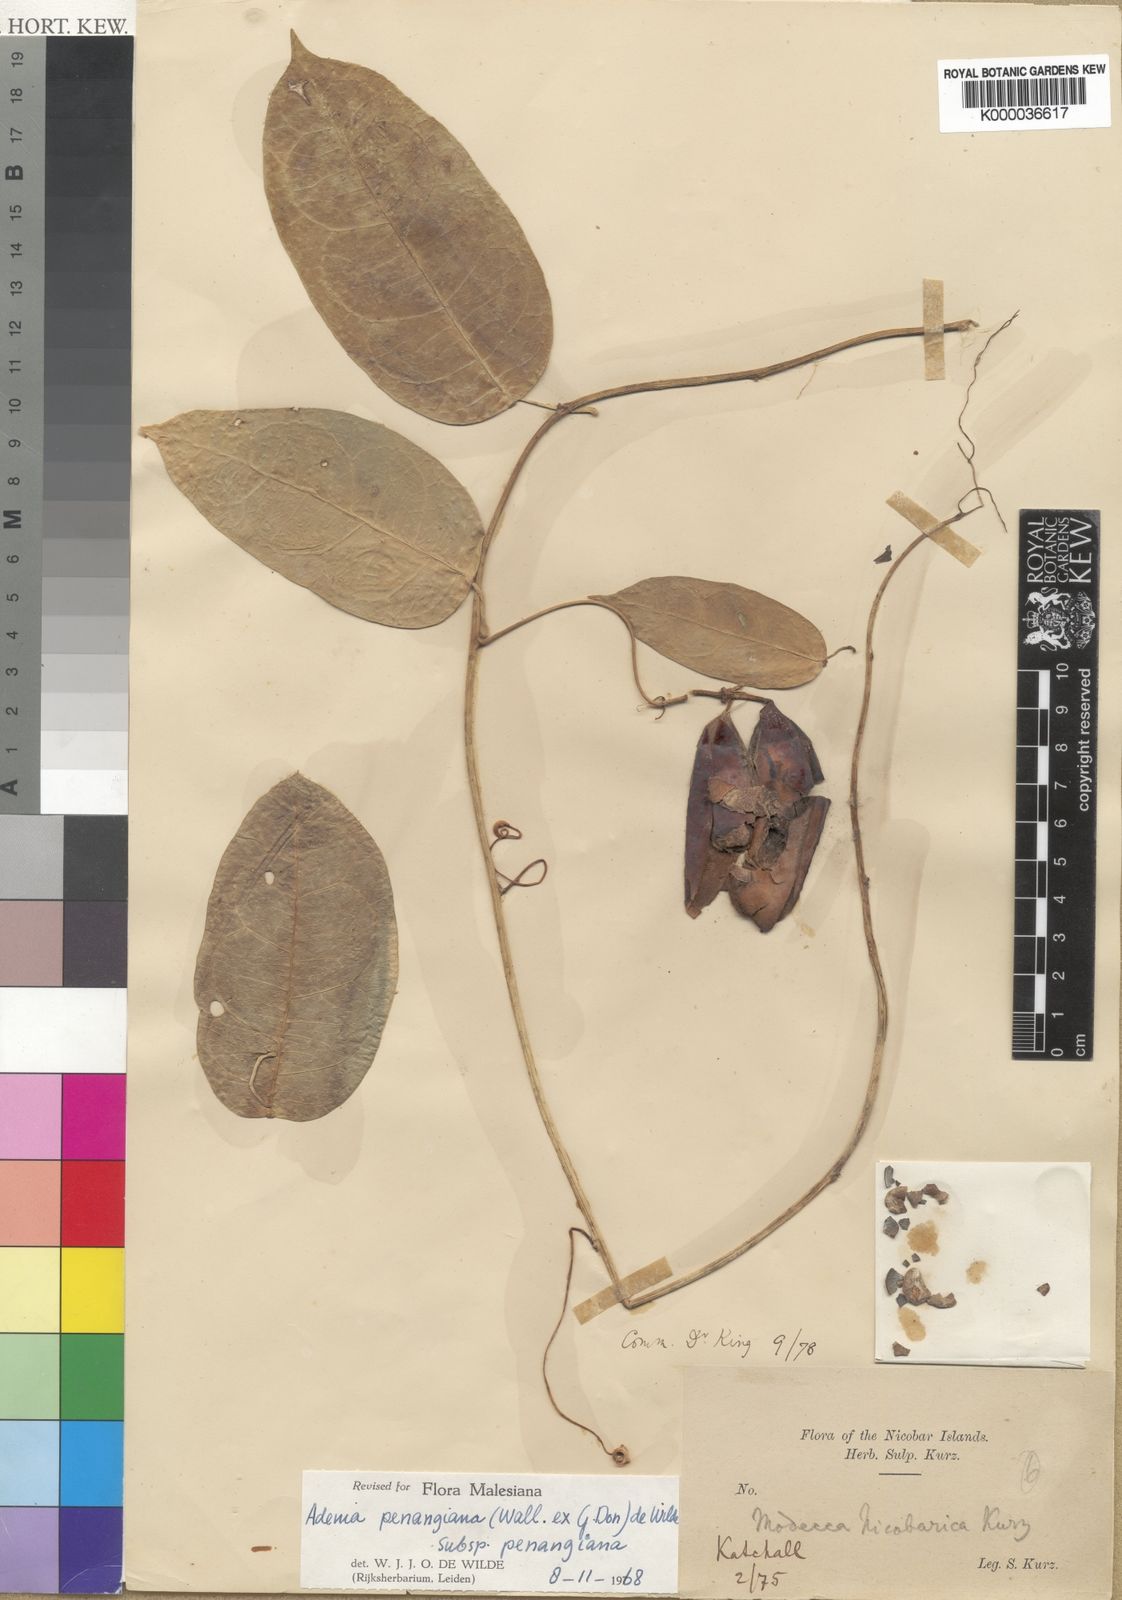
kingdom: Plantae
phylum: Tracheophyta
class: Magnoliopsida
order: Malpighiales
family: Passifloraceae
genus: Adenia
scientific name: Adenia penangiana
